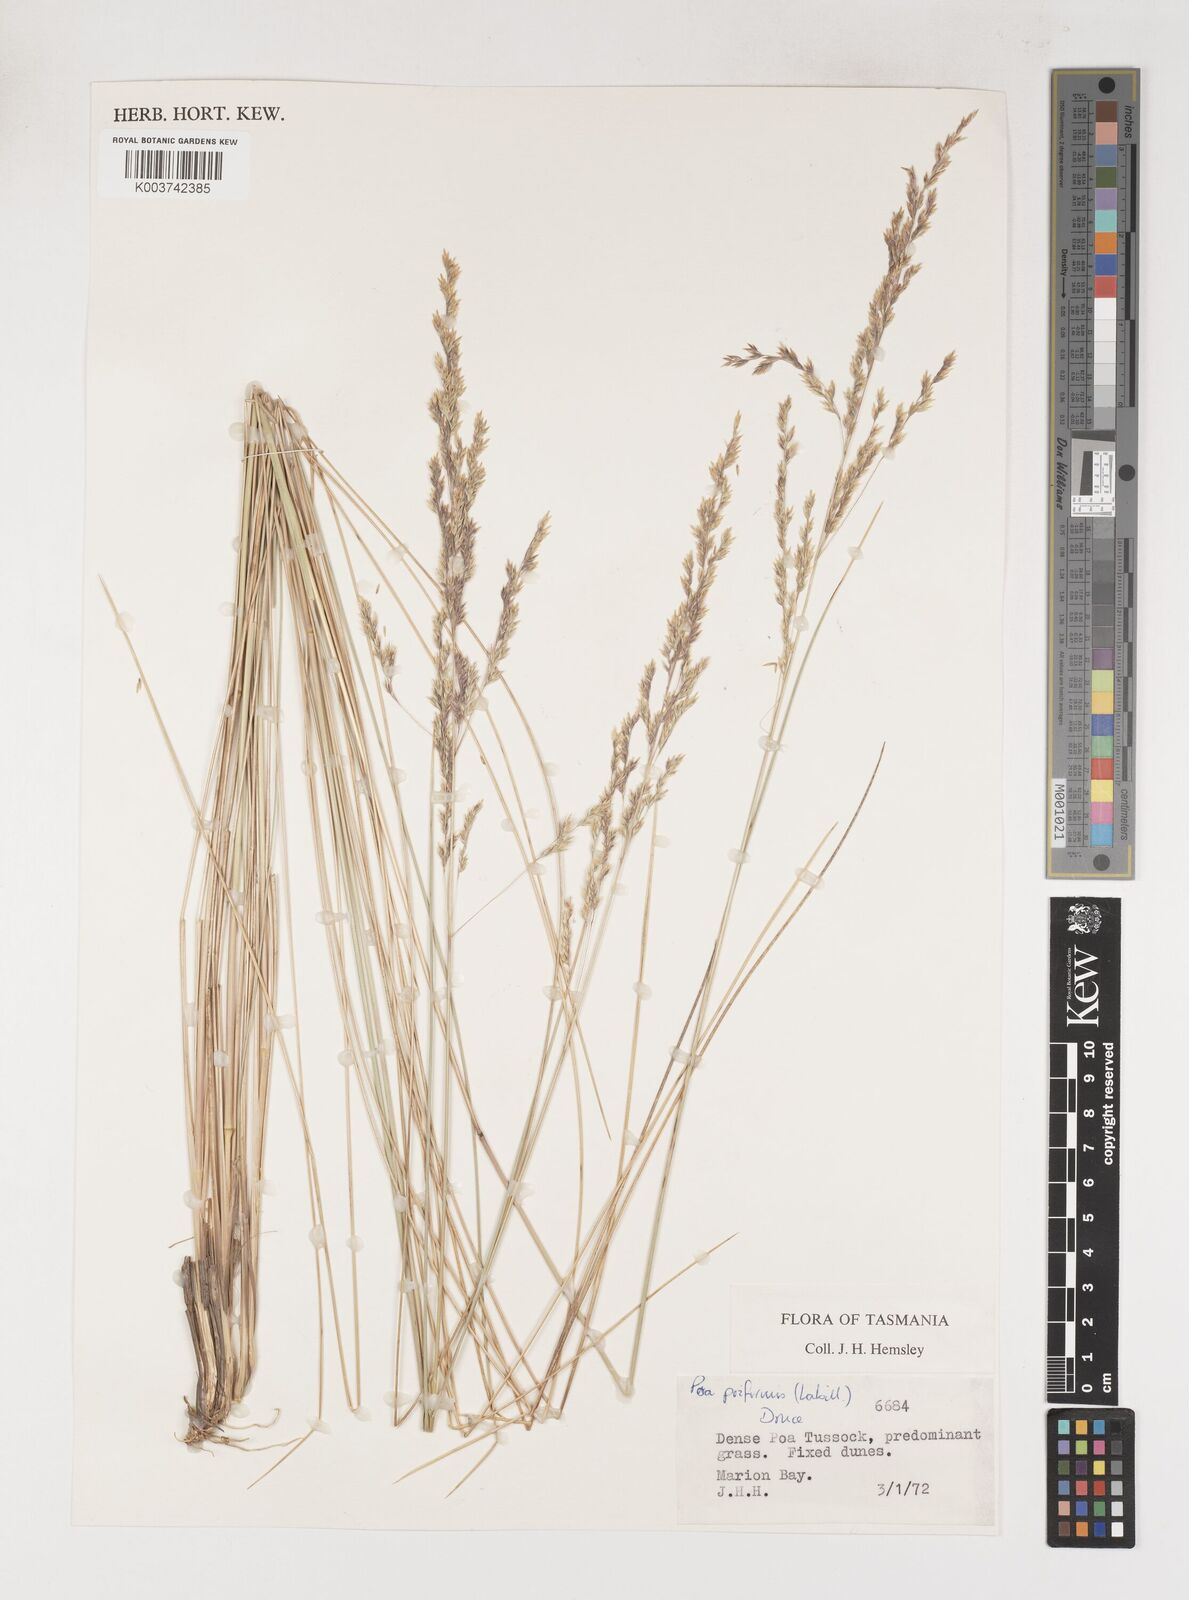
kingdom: Plantae
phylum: Tracheophyta
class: Liliopsida
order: Poales
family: Poaceae
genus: Poa
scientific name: Poa poiformis
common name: Tussock poa
